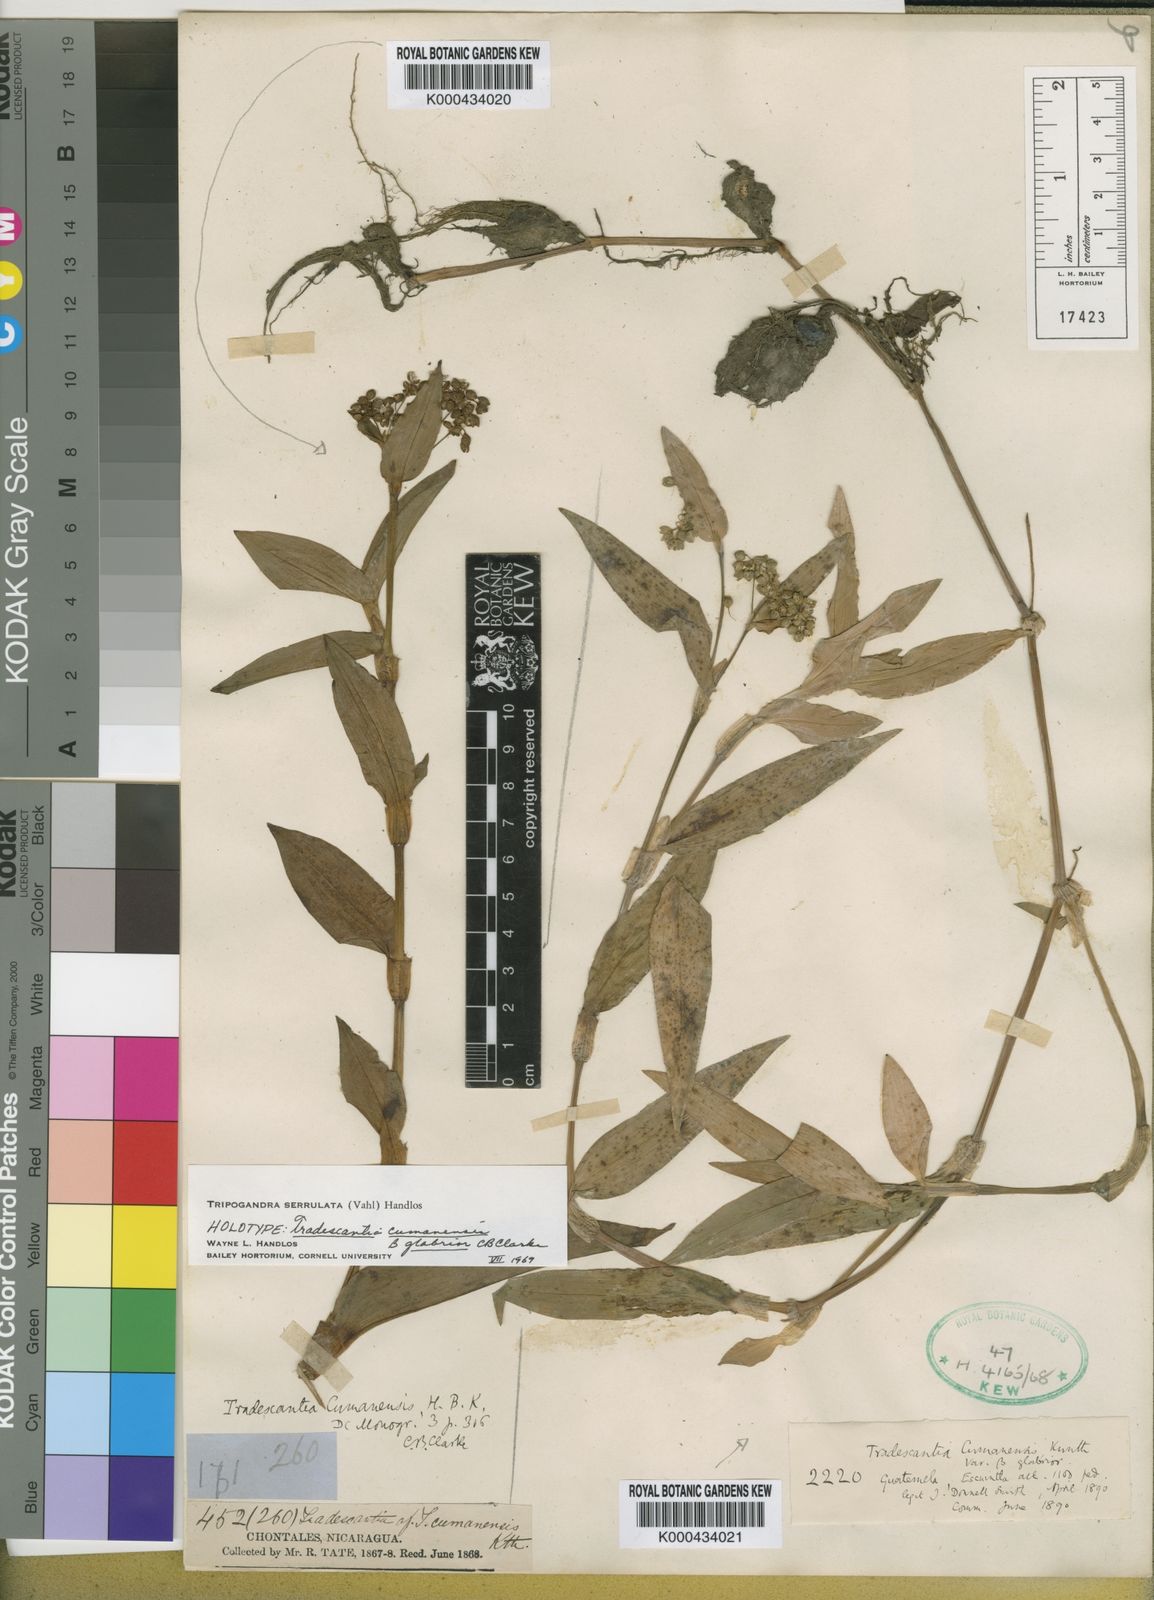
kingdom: Plantae
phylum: Tracheophyta
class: Liliopsida
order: Commelinales
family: Commelinaceae
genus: Callisia
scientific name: Callisia serrulata
